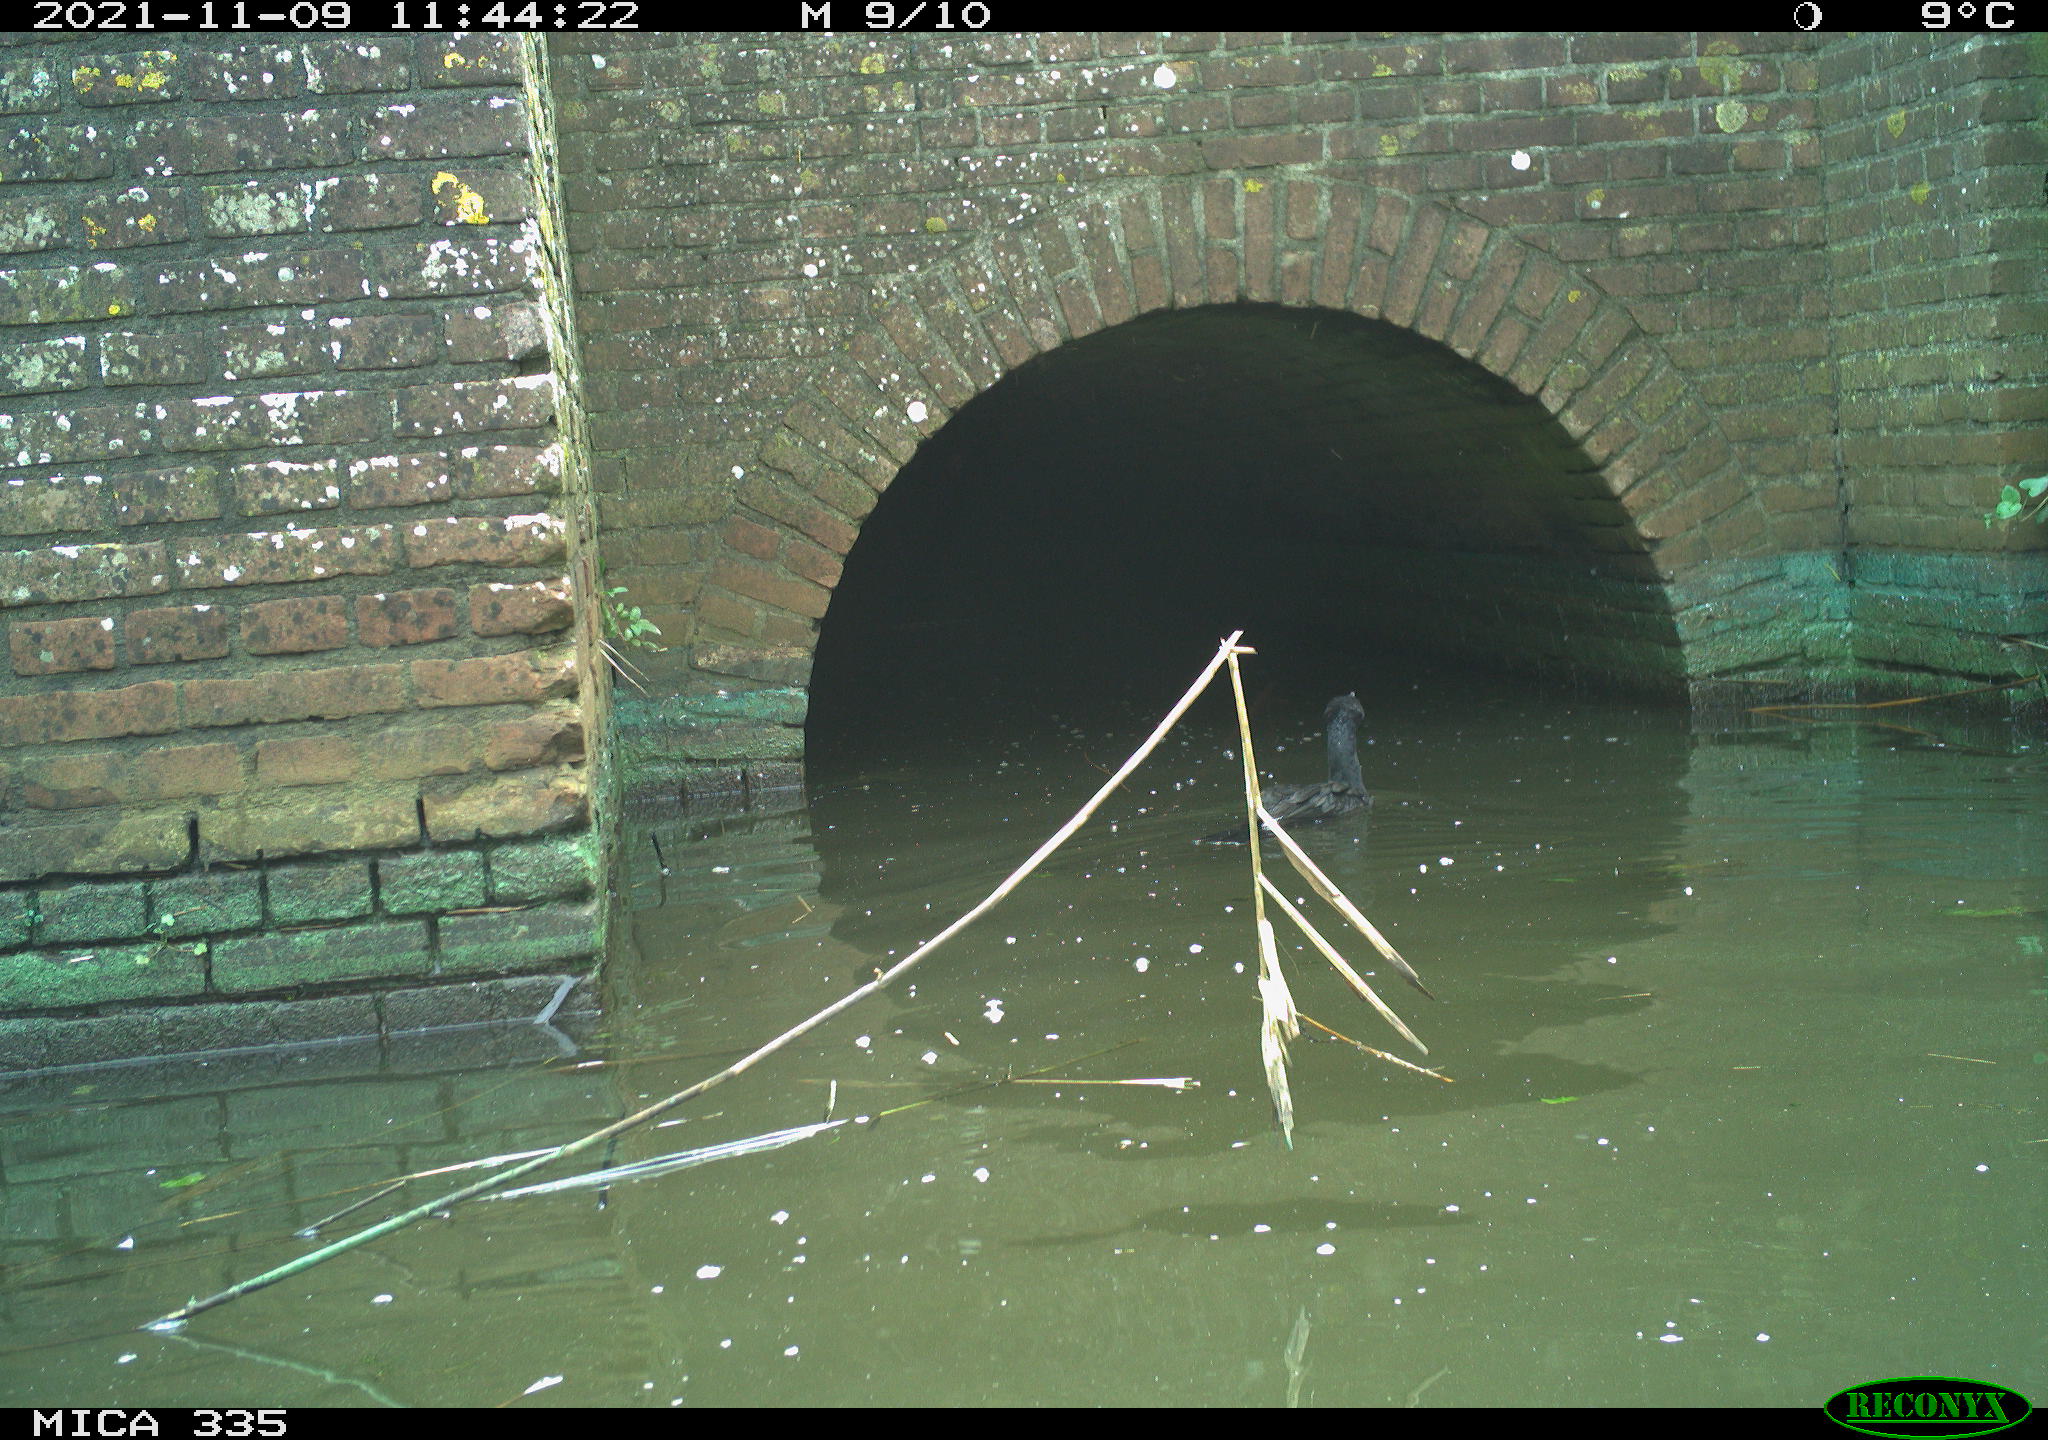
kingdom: Animalia
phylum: Chordata
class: Aves
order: Suliformes
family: Phalacrocoracidae
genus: Phalacrocorax
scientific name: Phalacrocorax carbo
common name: Great cormorant
